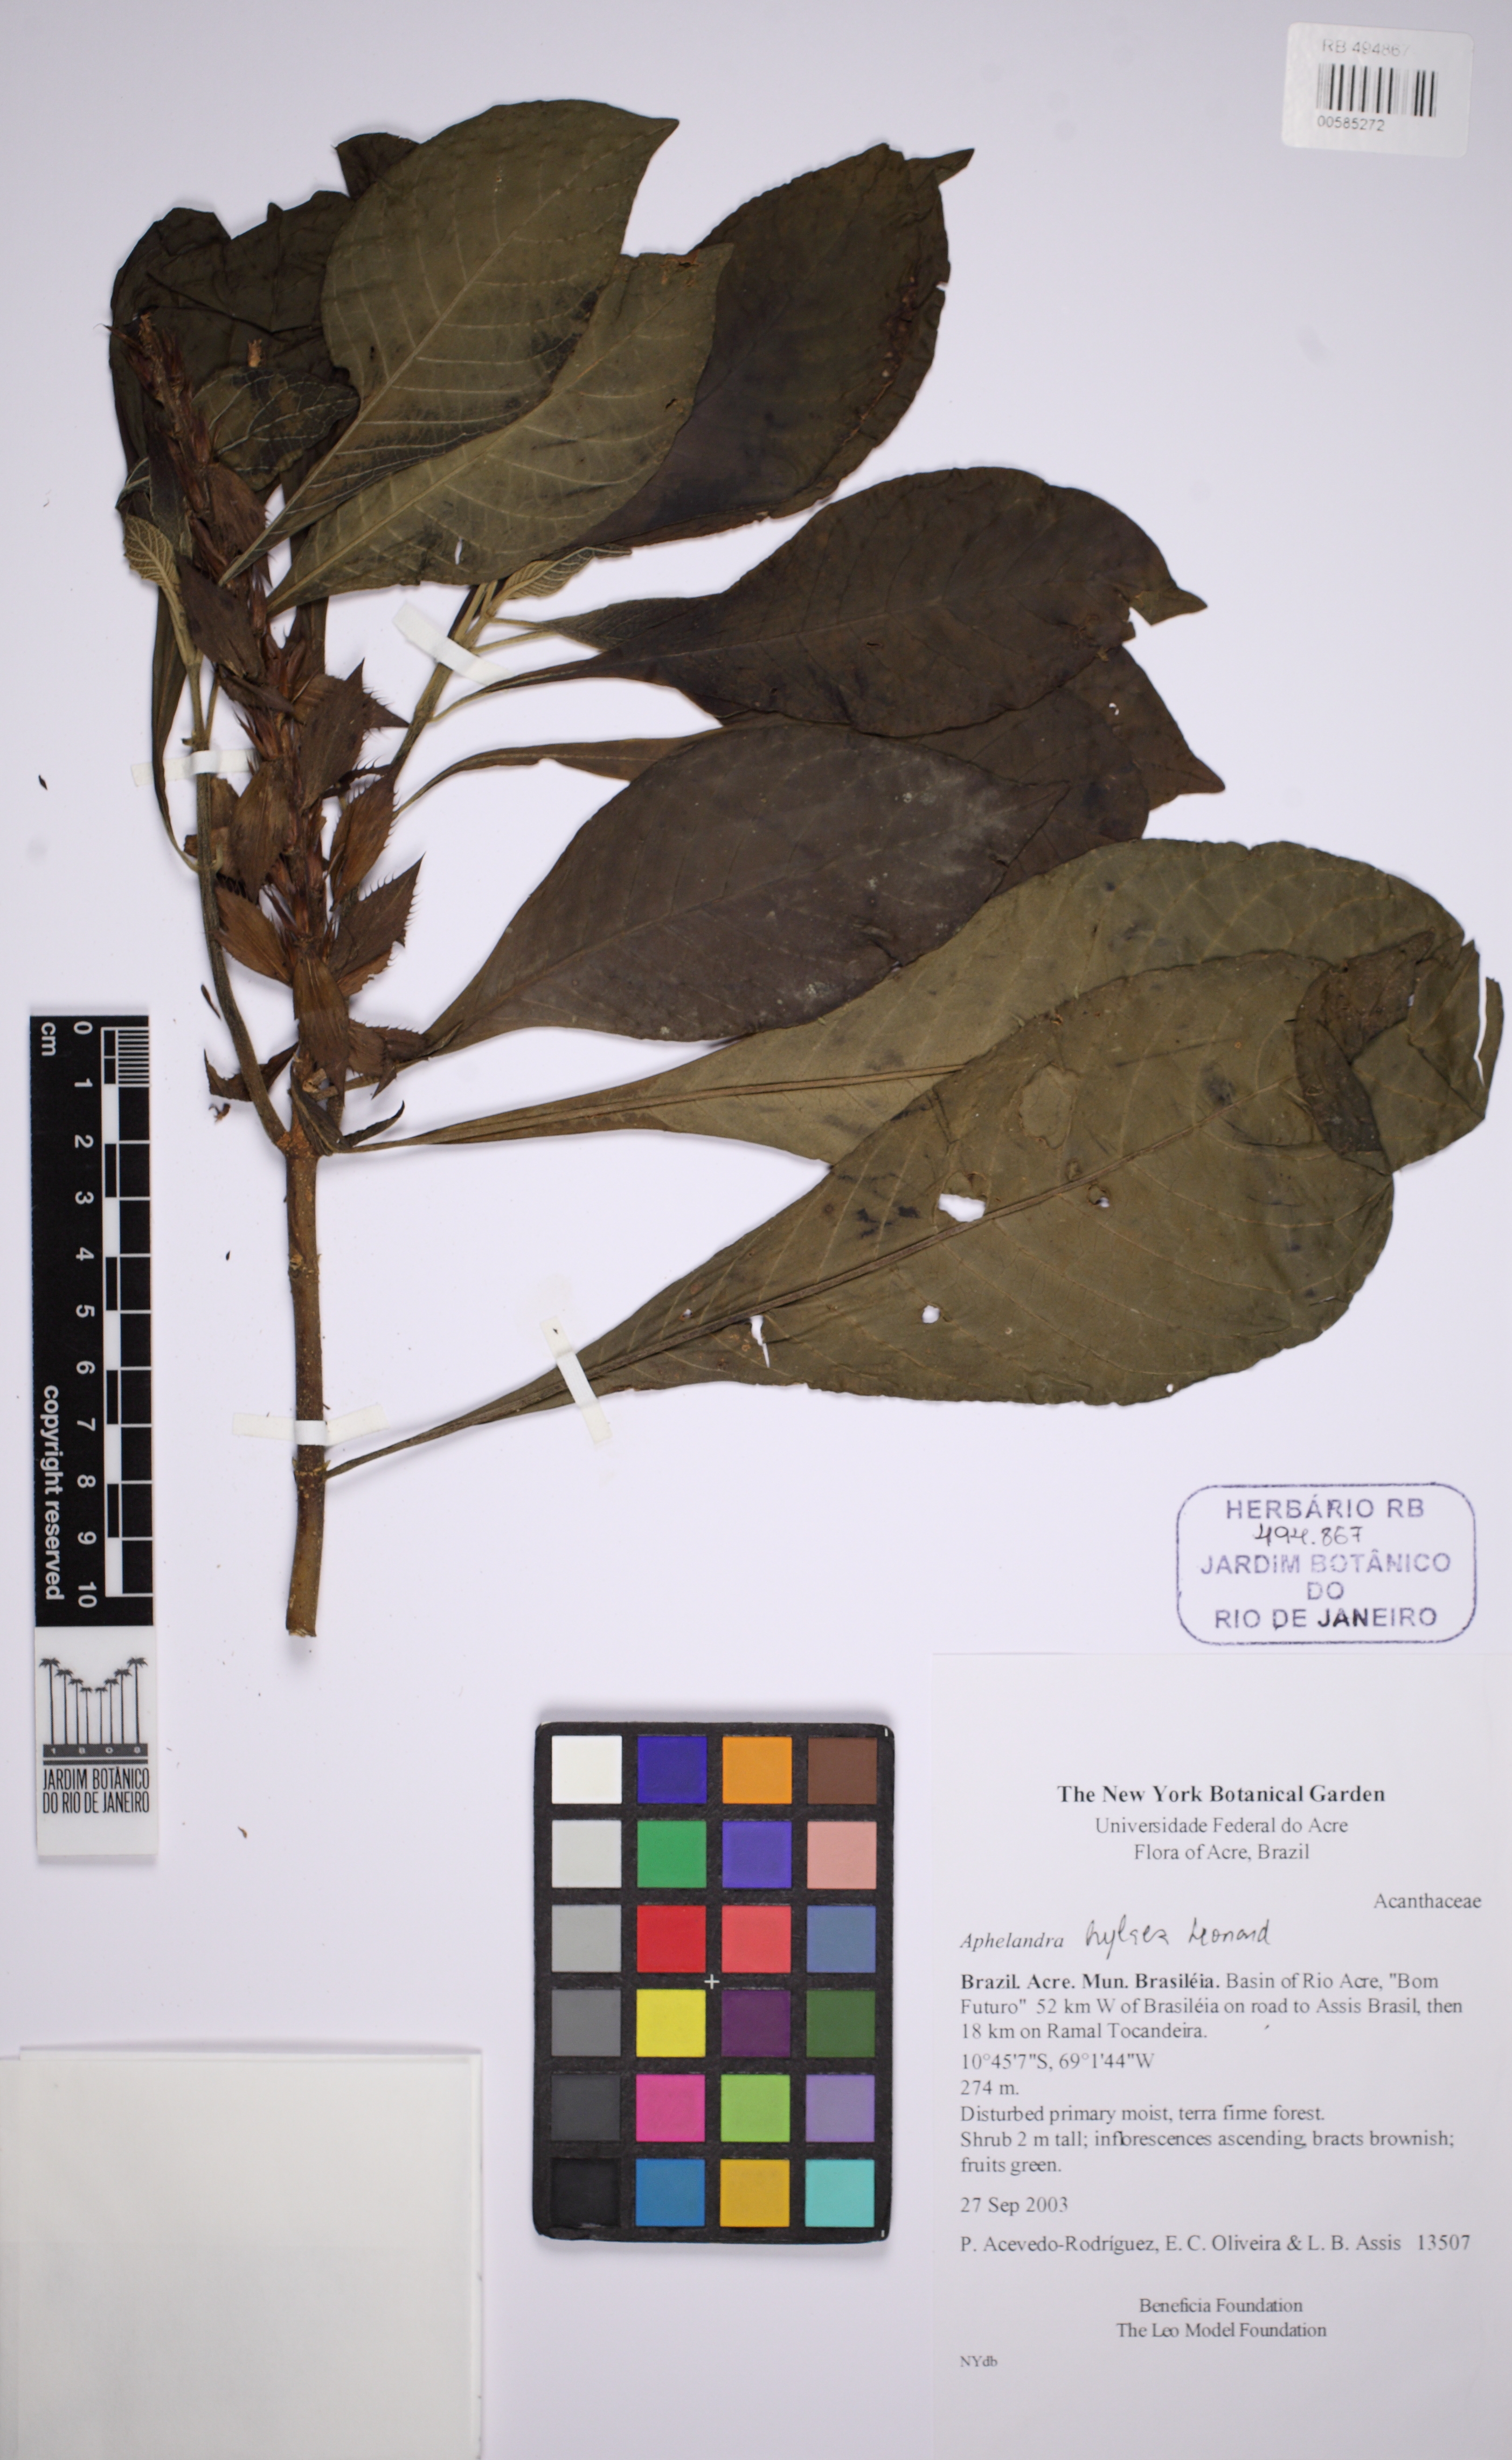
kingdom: Plantae
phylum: Tracheophyta
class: Magnoliopsida
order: Lamiales
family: Acanthaceae
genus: Aphelandra
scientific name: Aphelandra hylaea
